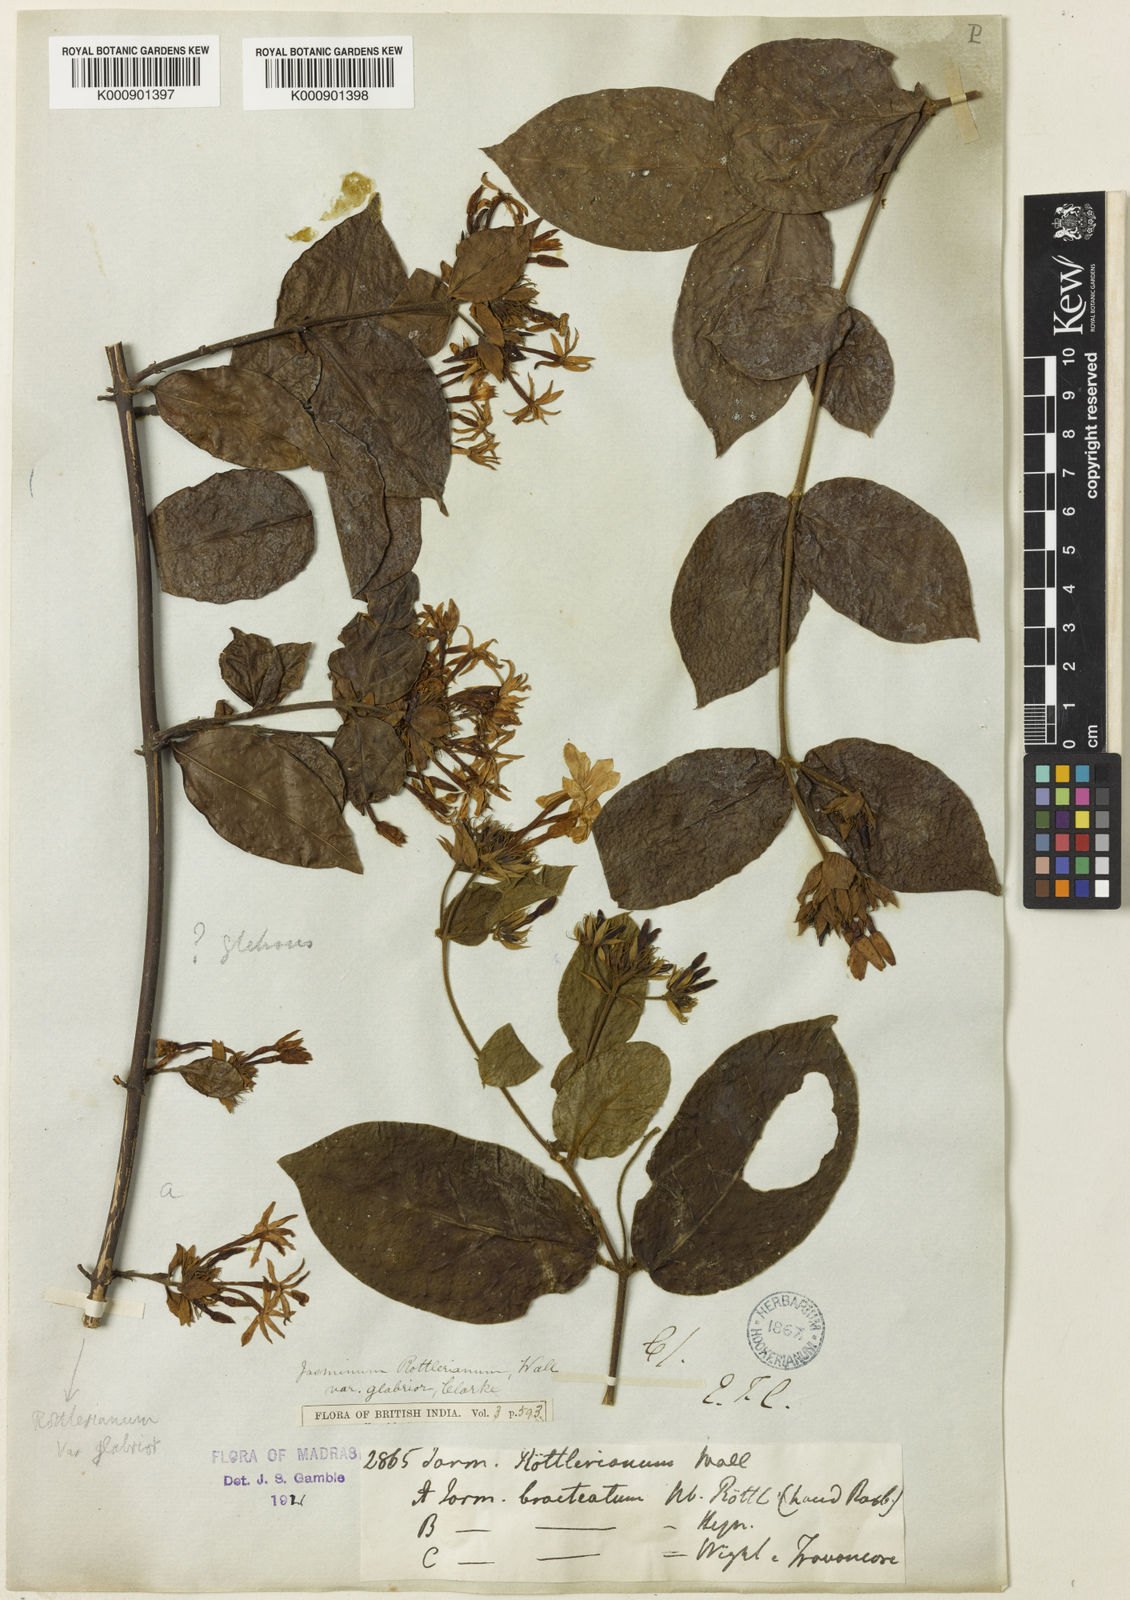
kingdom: Plantae
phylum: Tracheophyta
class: Magnoliopsida
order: Lamiales
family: Oleaceae
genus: Jasminum
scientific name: Jasminum
